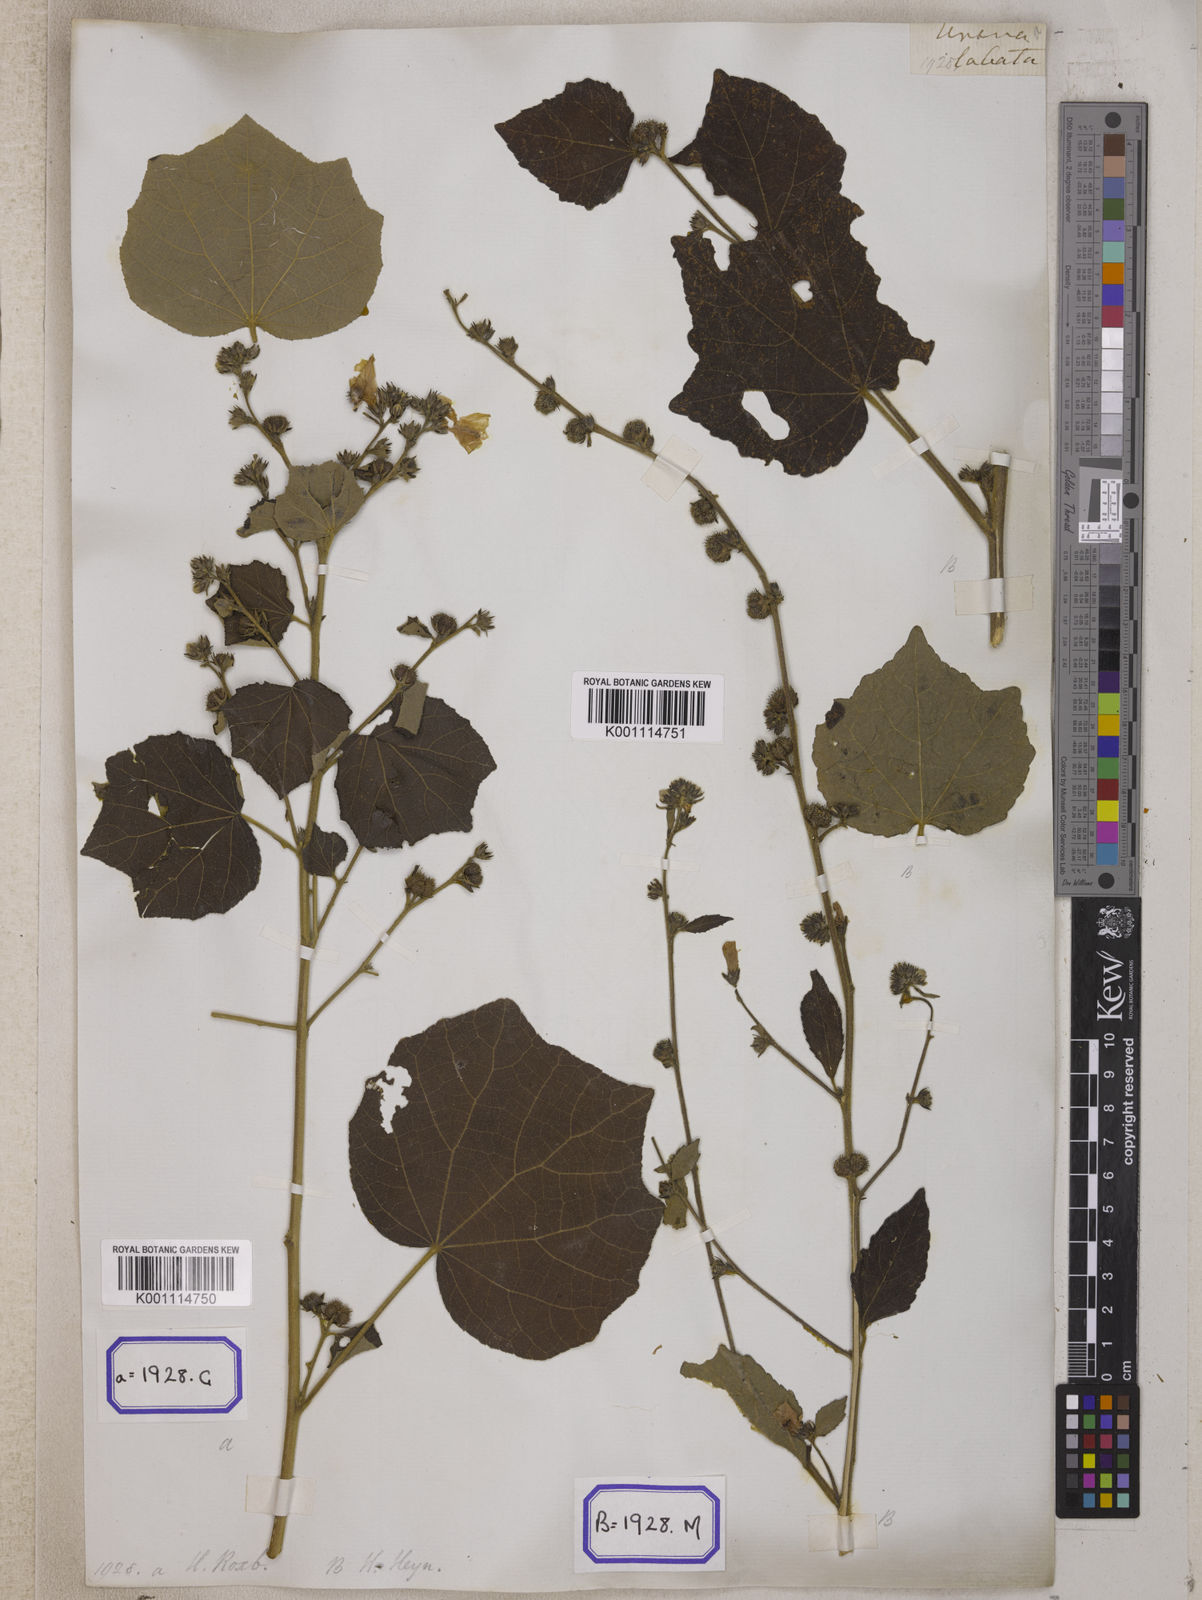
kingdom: Plantae
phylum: Tracheophyta
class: Magnoliopsida
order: Malvales
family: Malvaceae
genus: Urena
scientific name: Urena lobata
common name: Caesarweed
